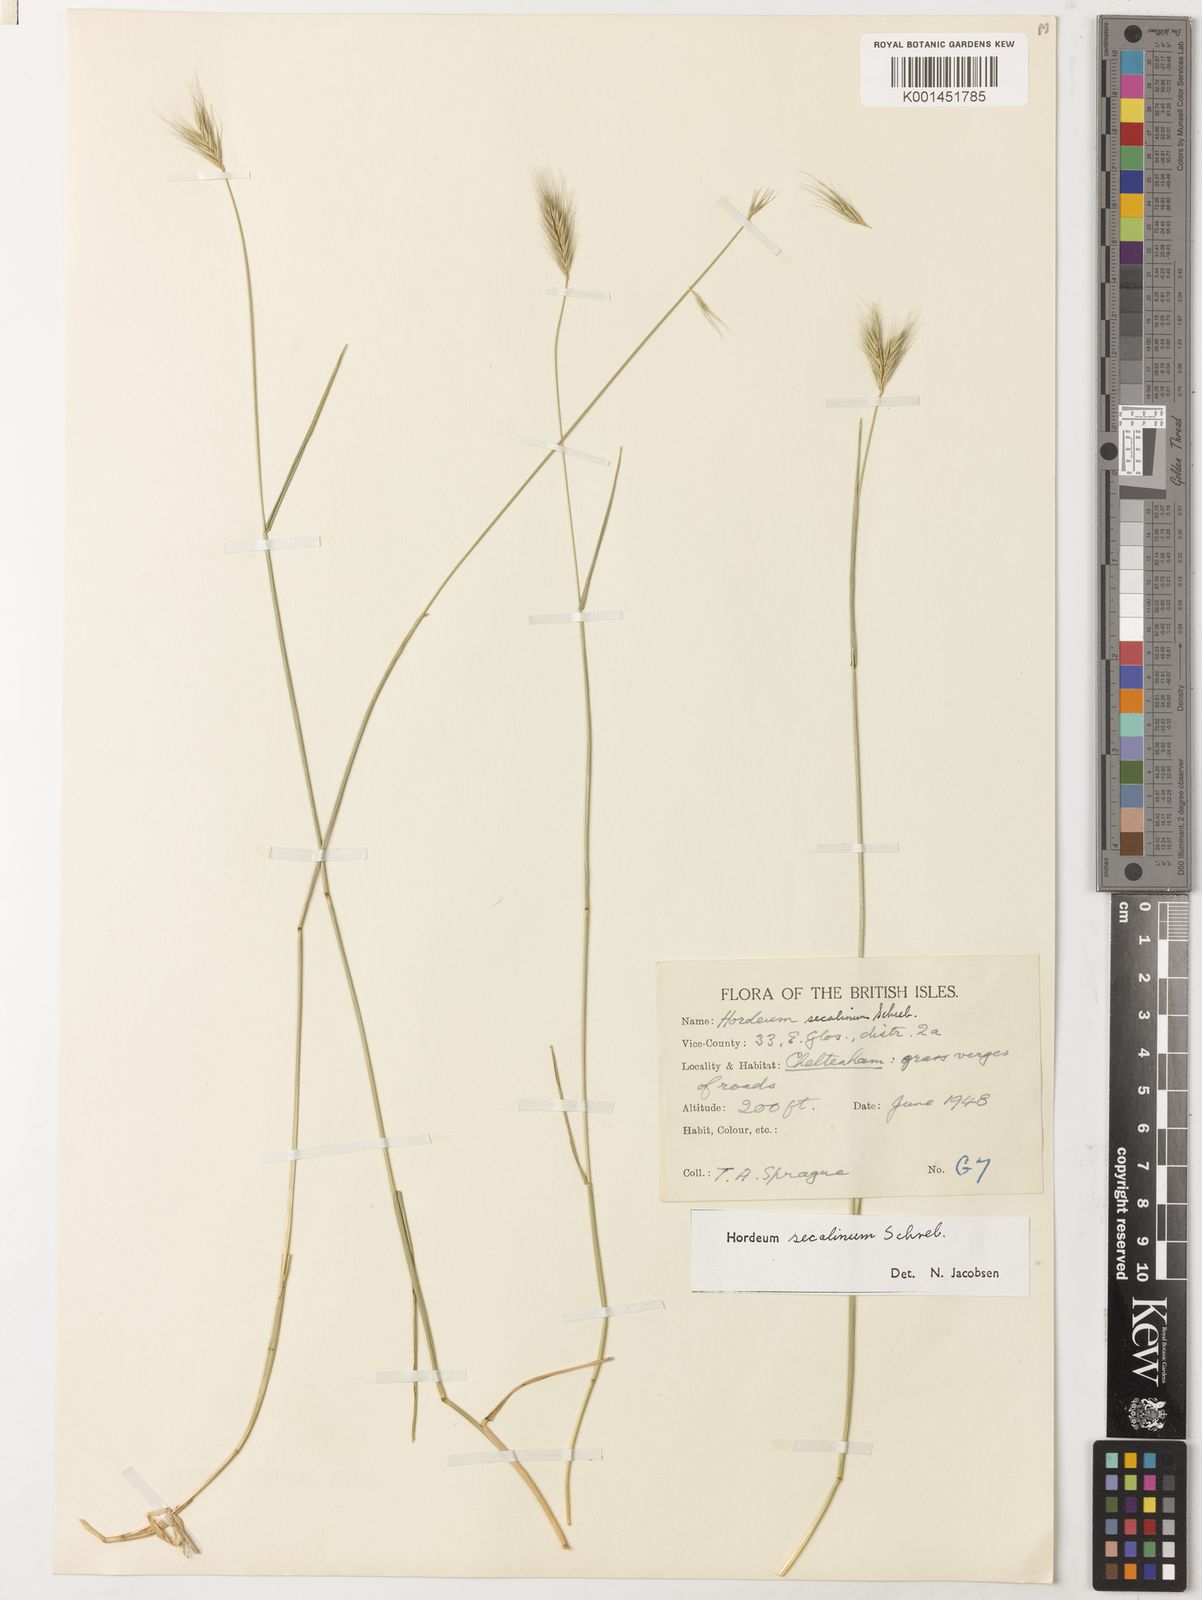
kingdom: Plantae
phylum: Tracheophyta
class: Liliopsida
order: Poales
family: Poaceae
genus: Hordeum
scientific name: Hordeum secalinum
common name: Meadow barley
